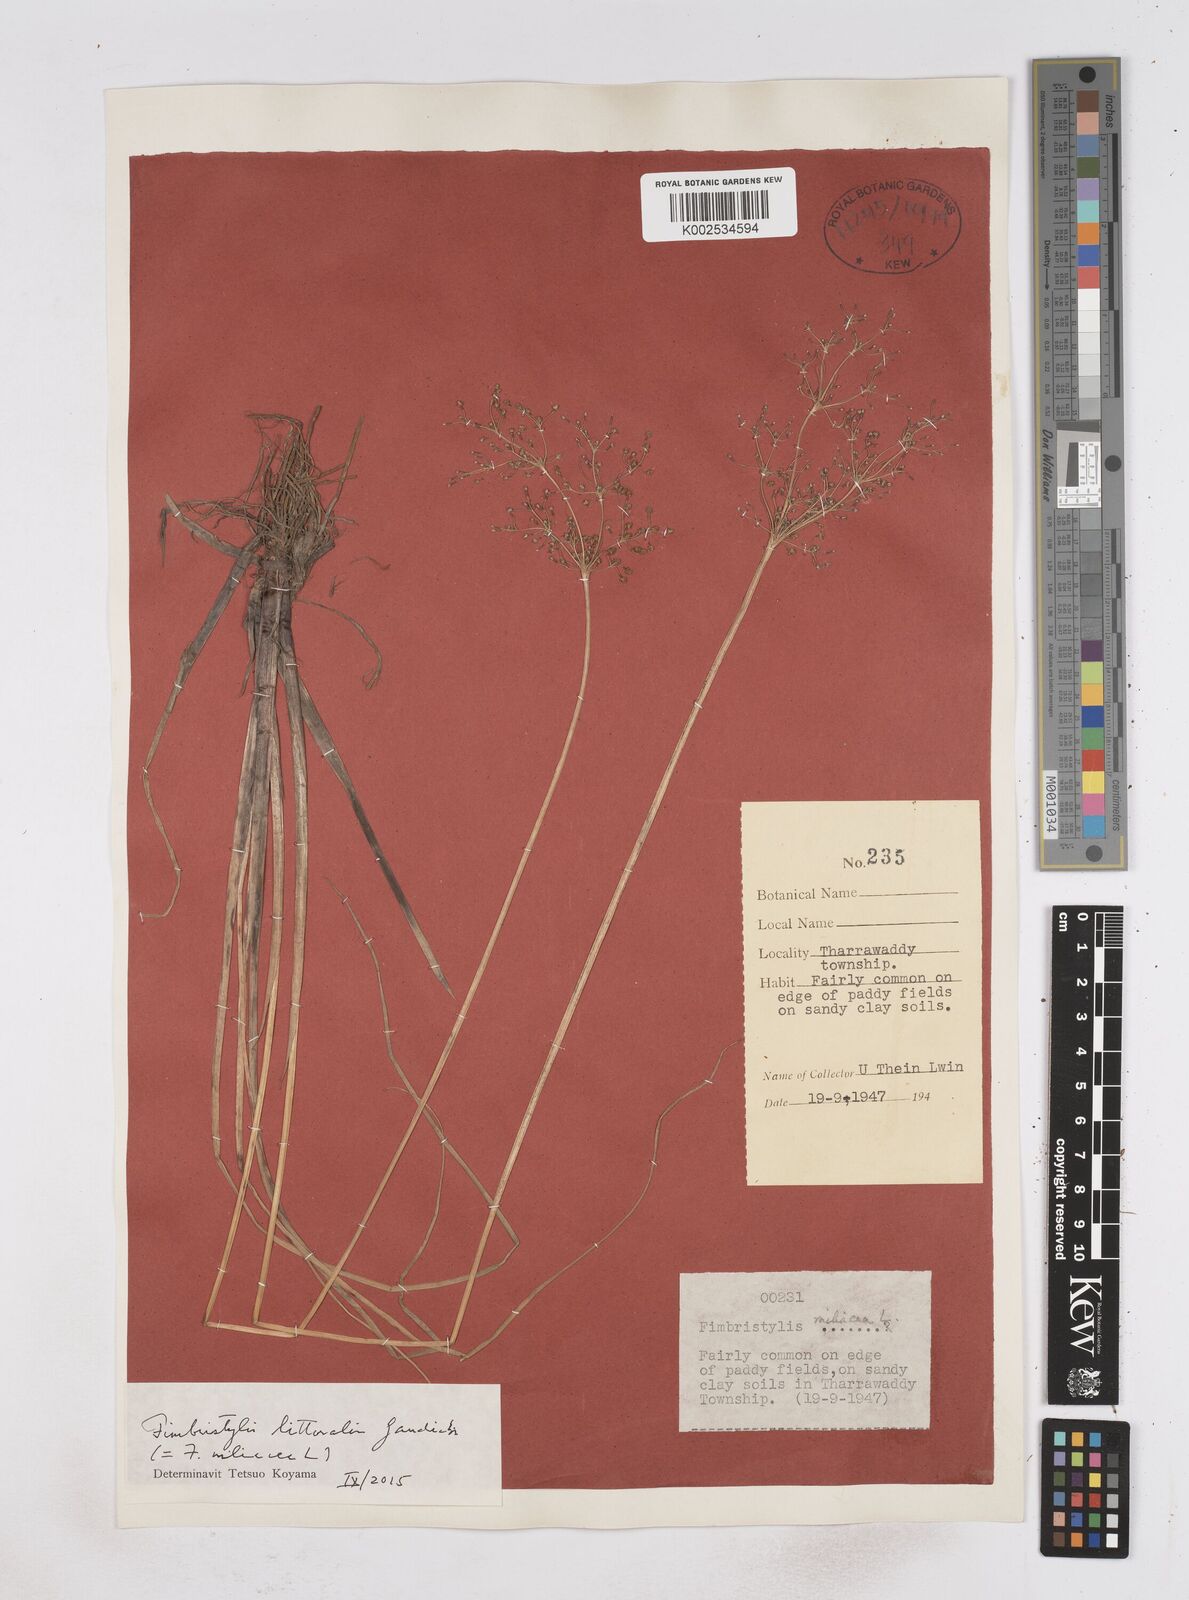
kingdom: Plantae
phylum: Tracheophyta
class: Liliopsida
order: Poales
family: Cyperaceae
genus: Fimbristylis
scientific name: Fimbristylis littoralis
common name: Fimbry
